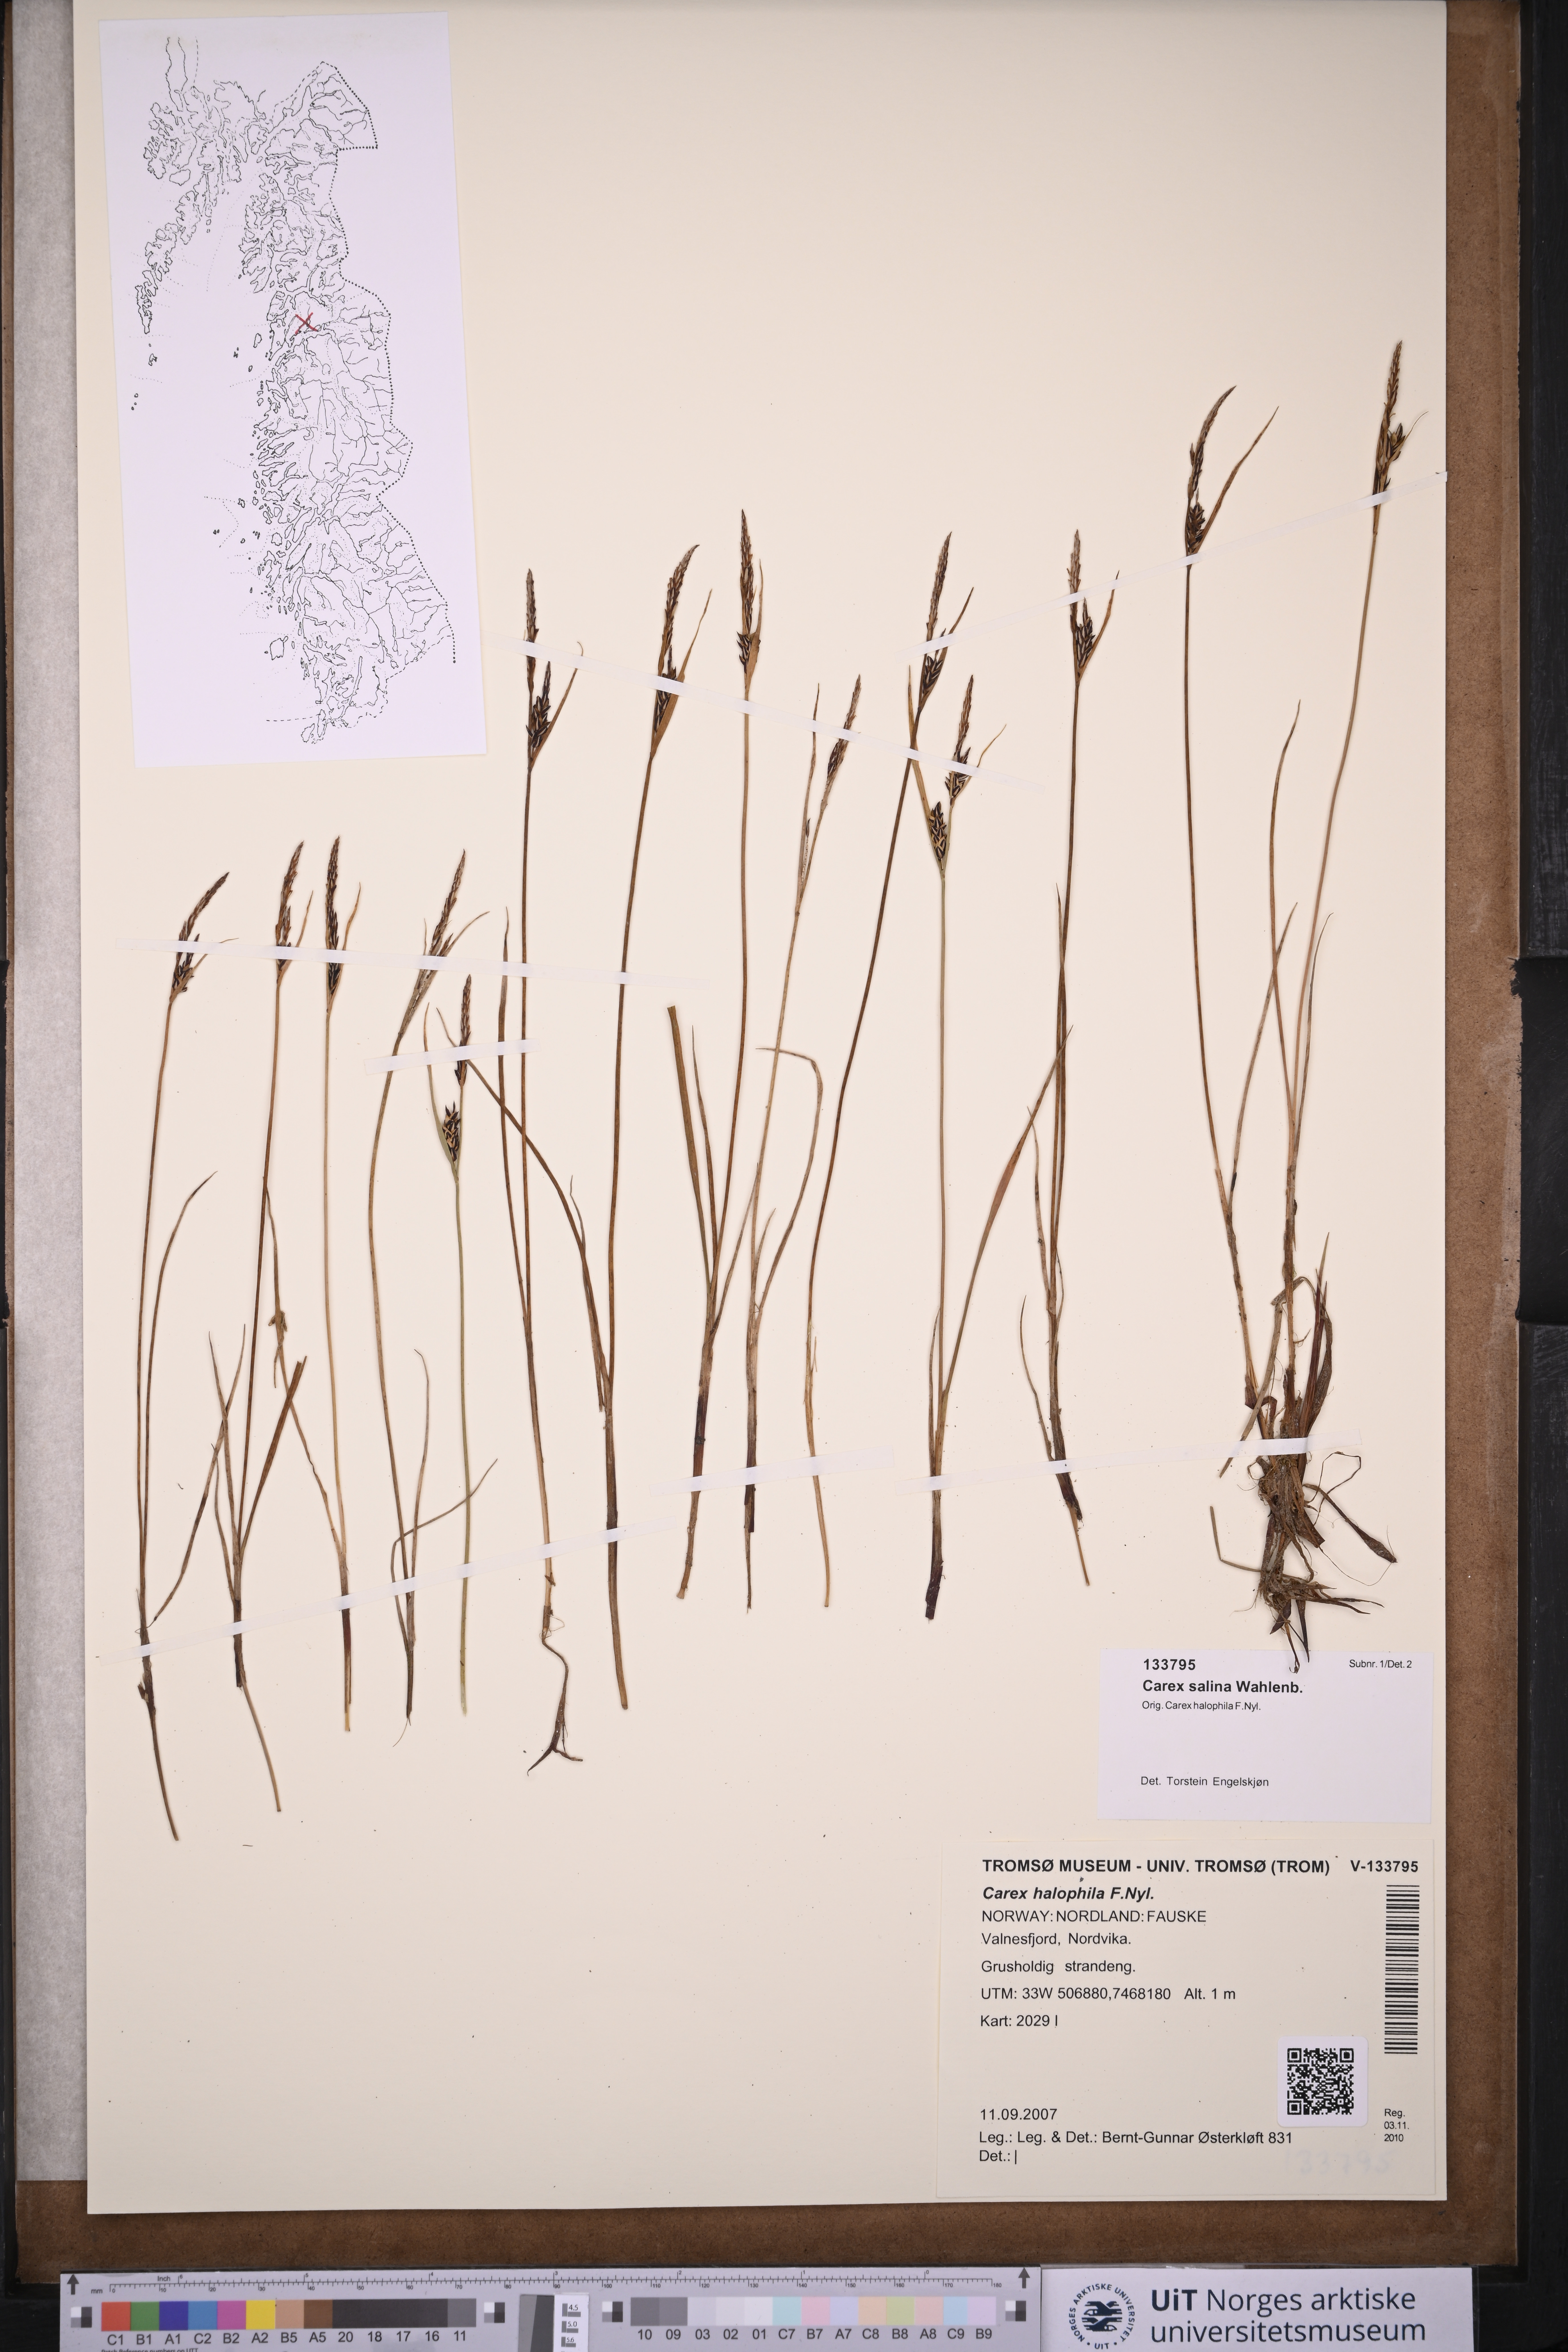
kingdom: Plantae
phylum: Tracheophyta
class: Liliopsida
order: Poales
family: Cyperaceae
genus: Carex
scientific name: Carex salina
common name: Saltmarsh sedge
